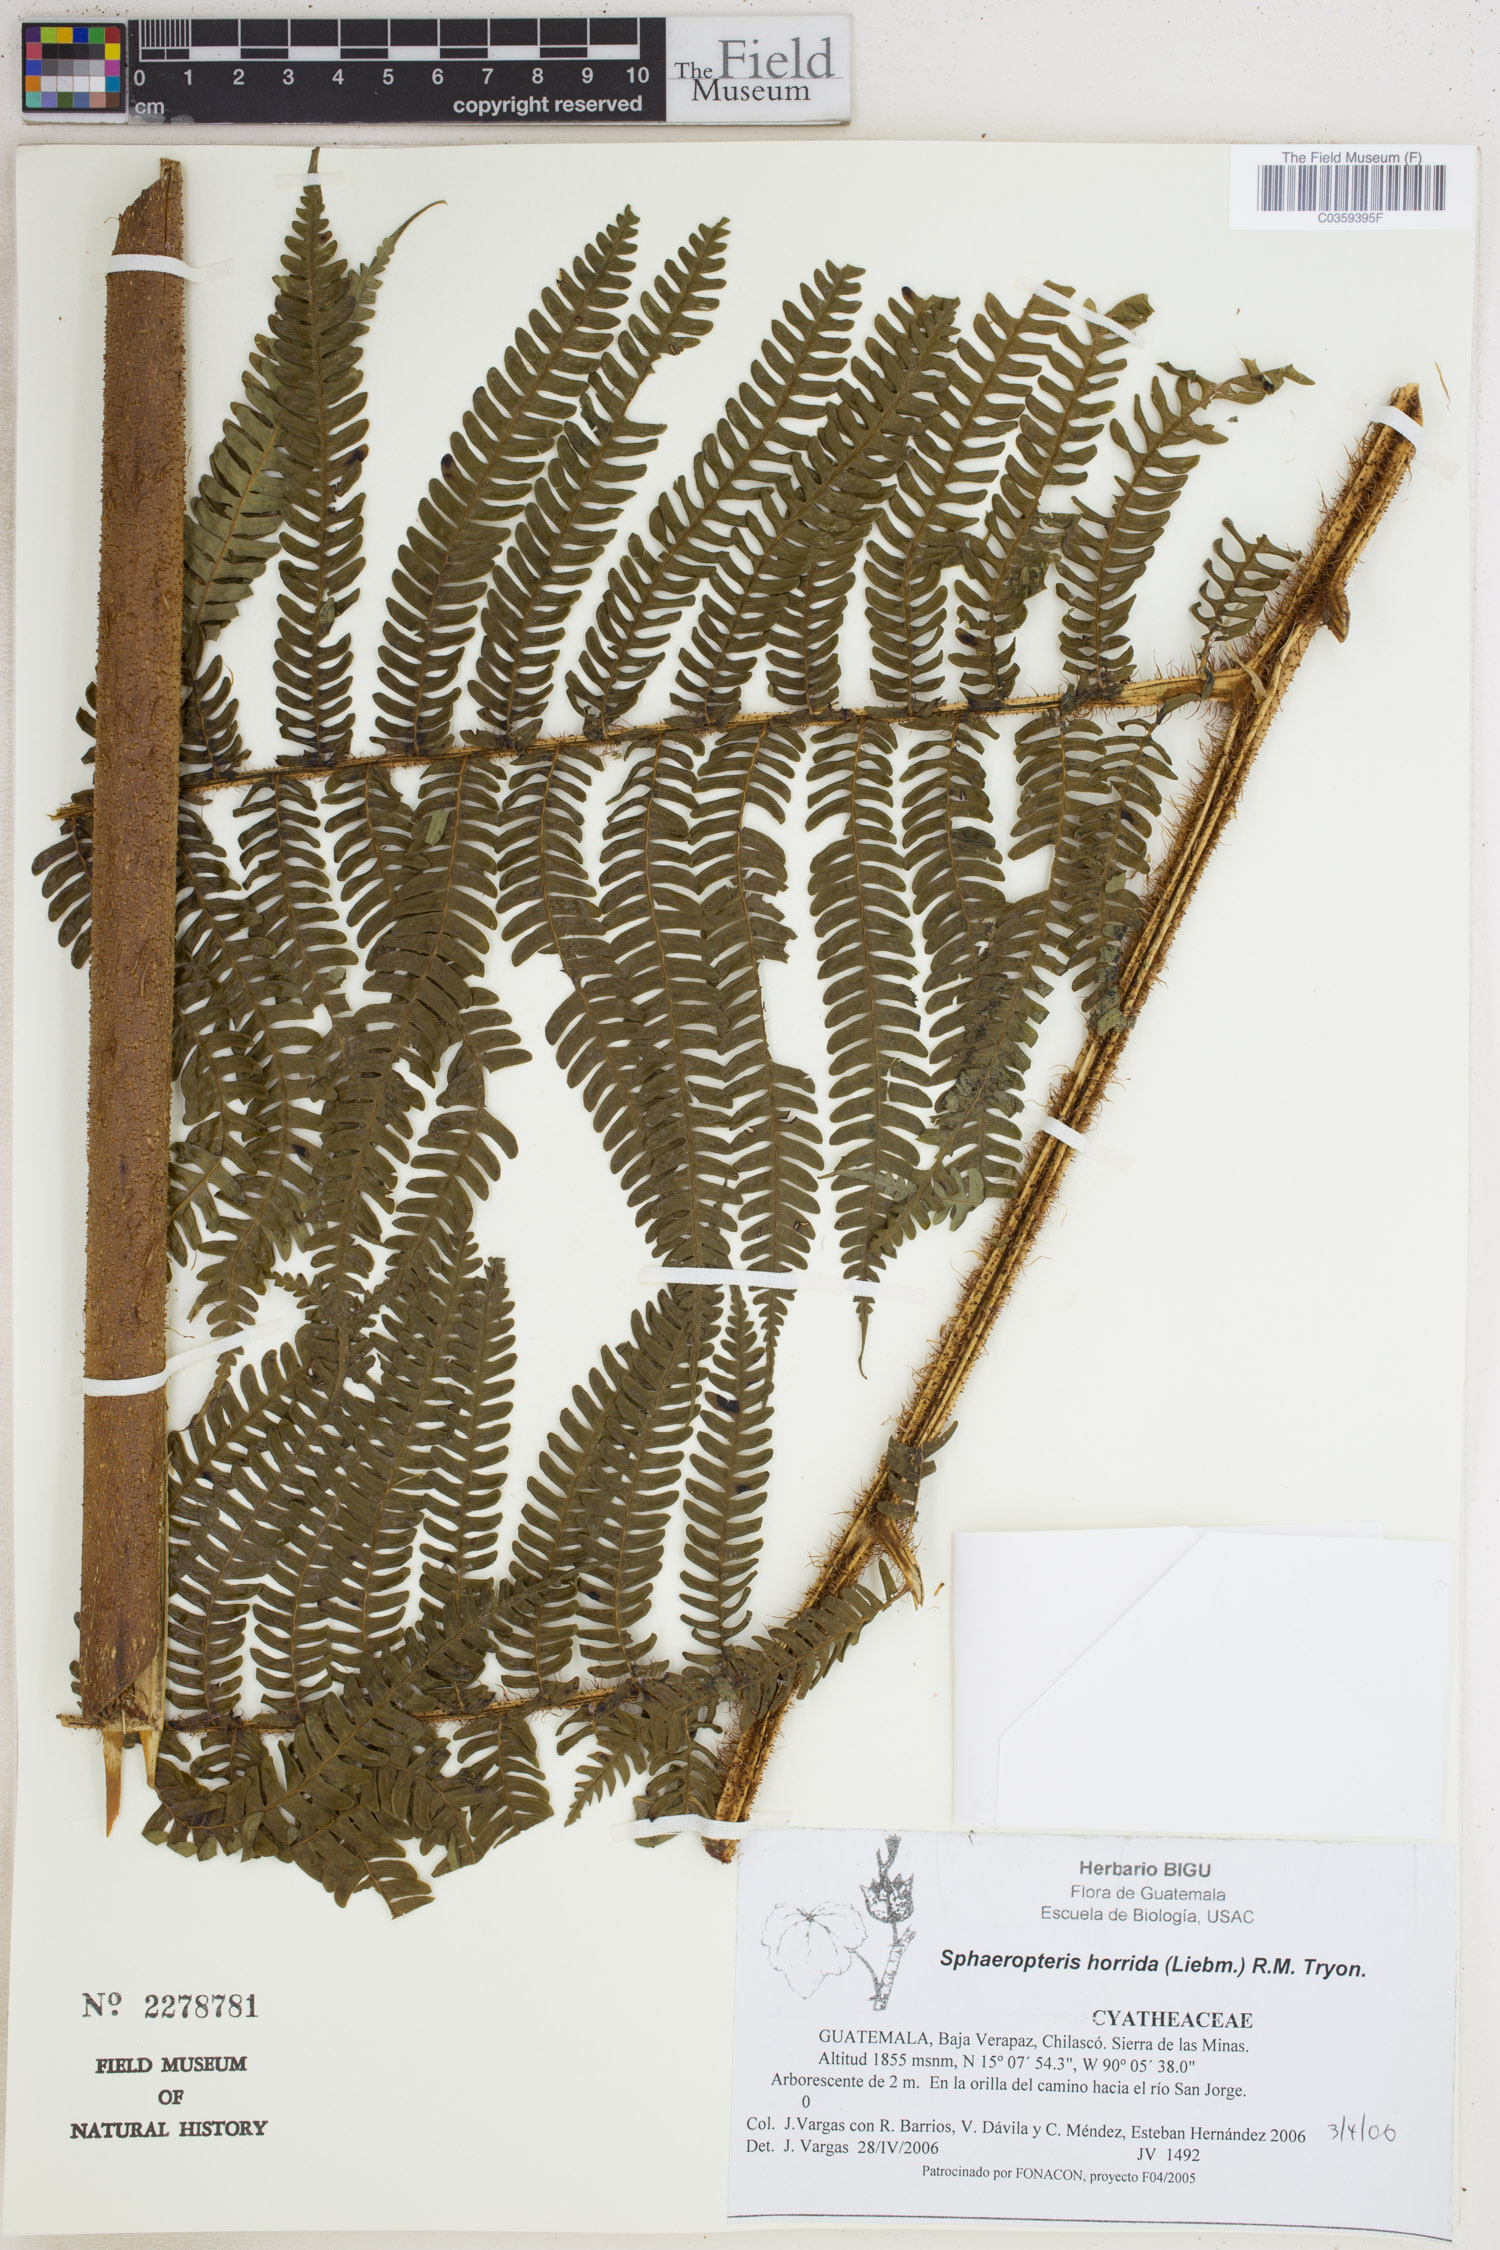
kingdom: Plantae
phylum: Tracheophyta
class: Polypodiopsida
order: Cyatheales
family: Cyatheaceae
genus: Sphaeropteris
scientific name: Sphaeropteris horrida
